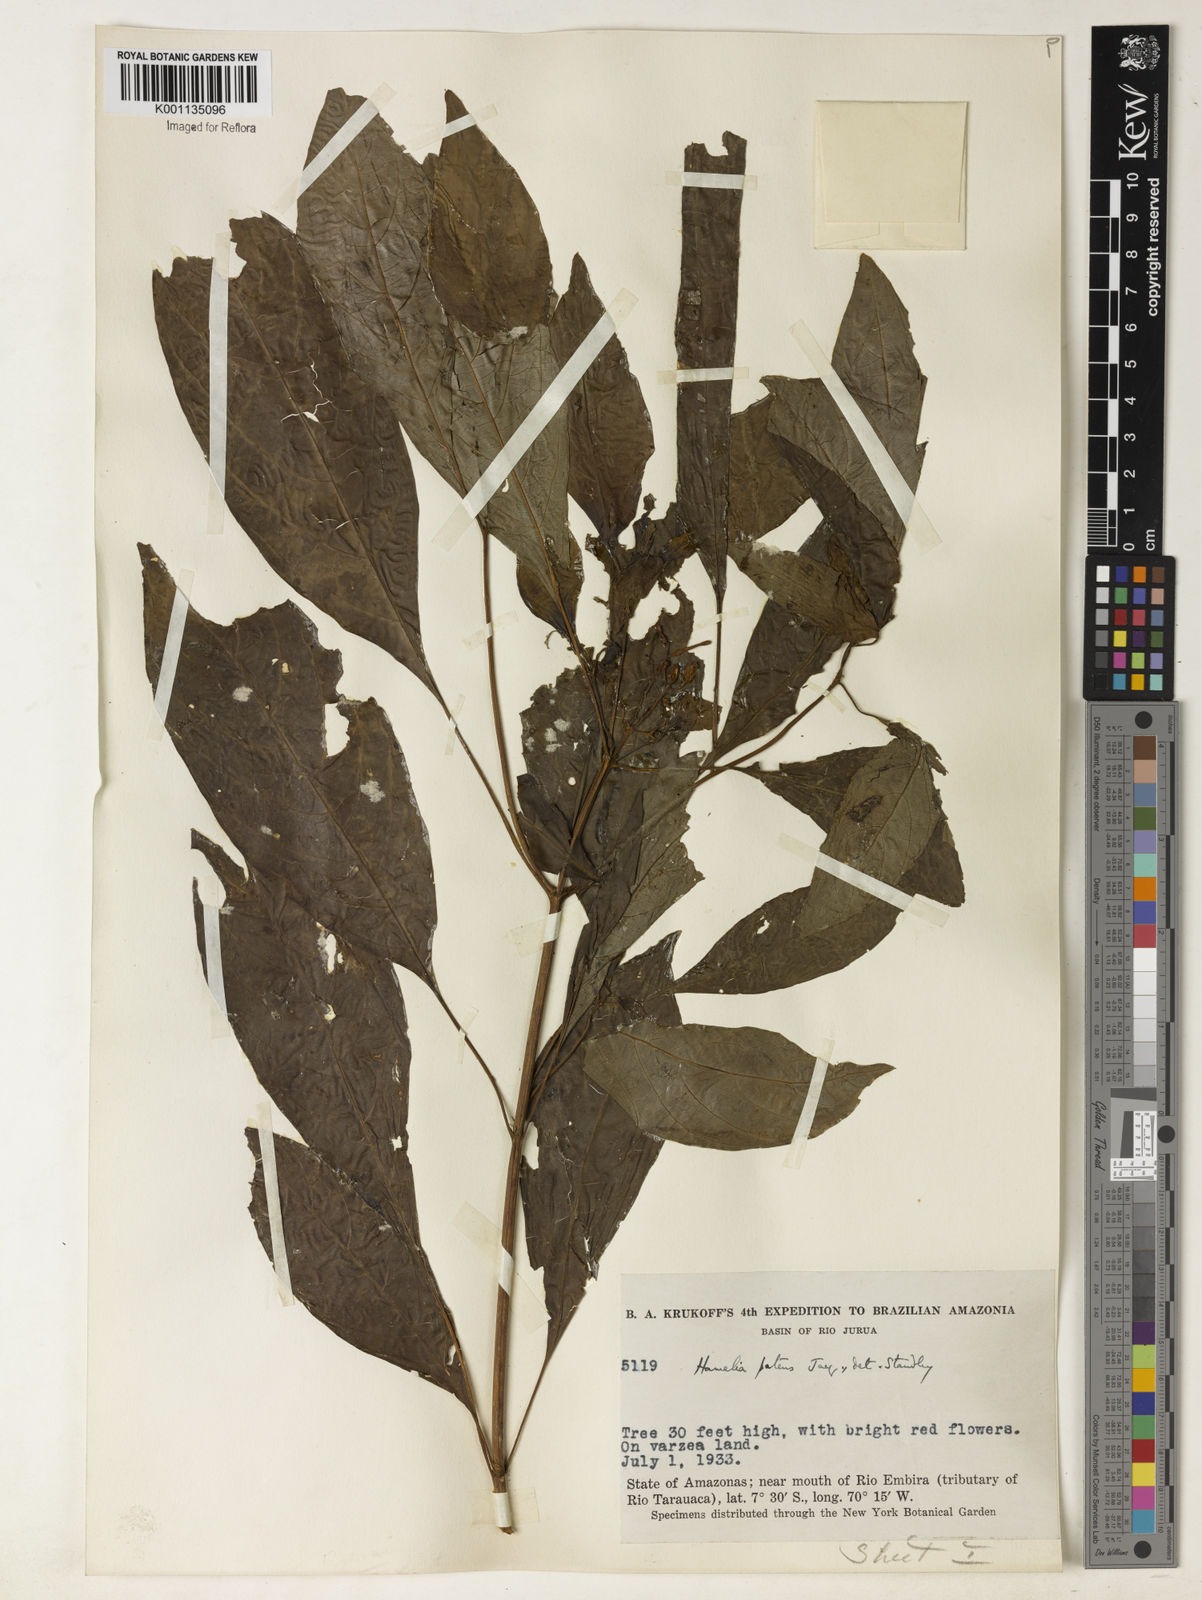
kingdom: Plantae
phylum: Tracheophyta
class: Magnoliopsida
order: Gentianales
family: Rubiaceae
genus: Hamelia
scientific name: Hamelia patens
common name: Redhead
